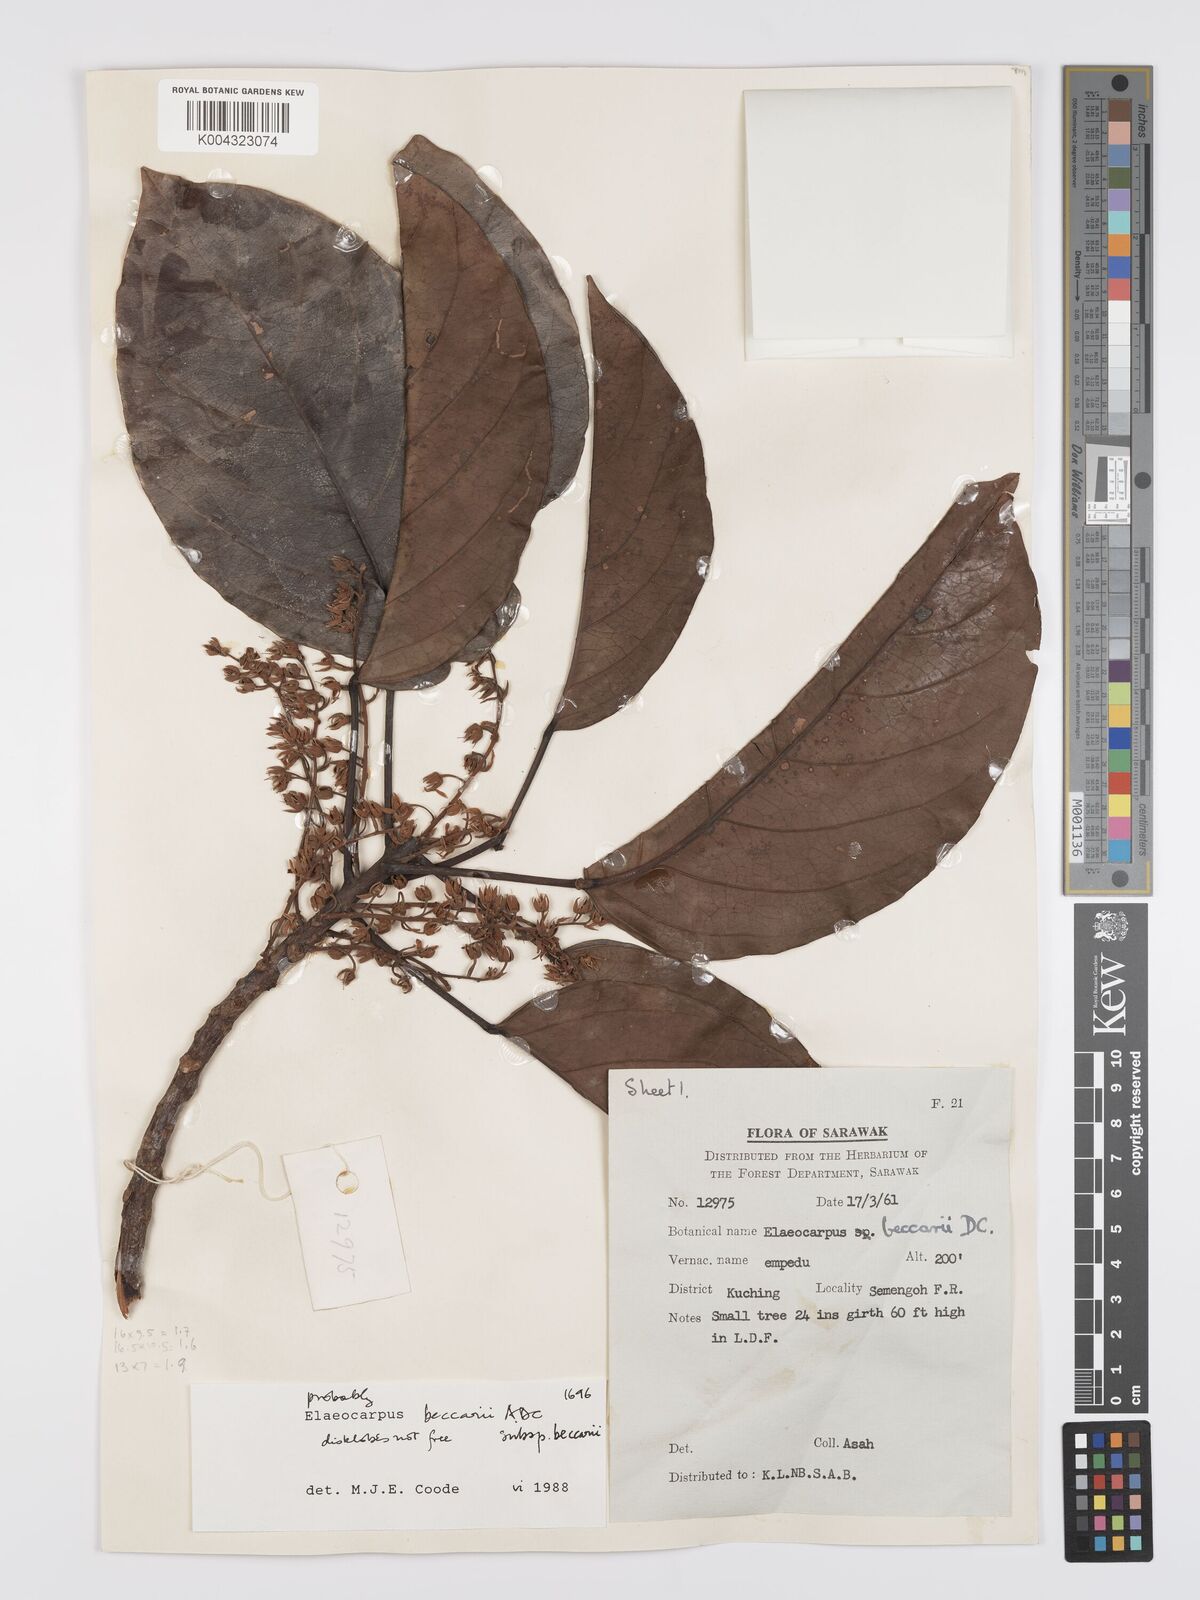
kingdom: Plantae
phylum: Tracheophyta
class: Magnoliopsida
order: Oxalidales
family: Elaeocarpaceae
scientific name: Elaeocarpaceae
